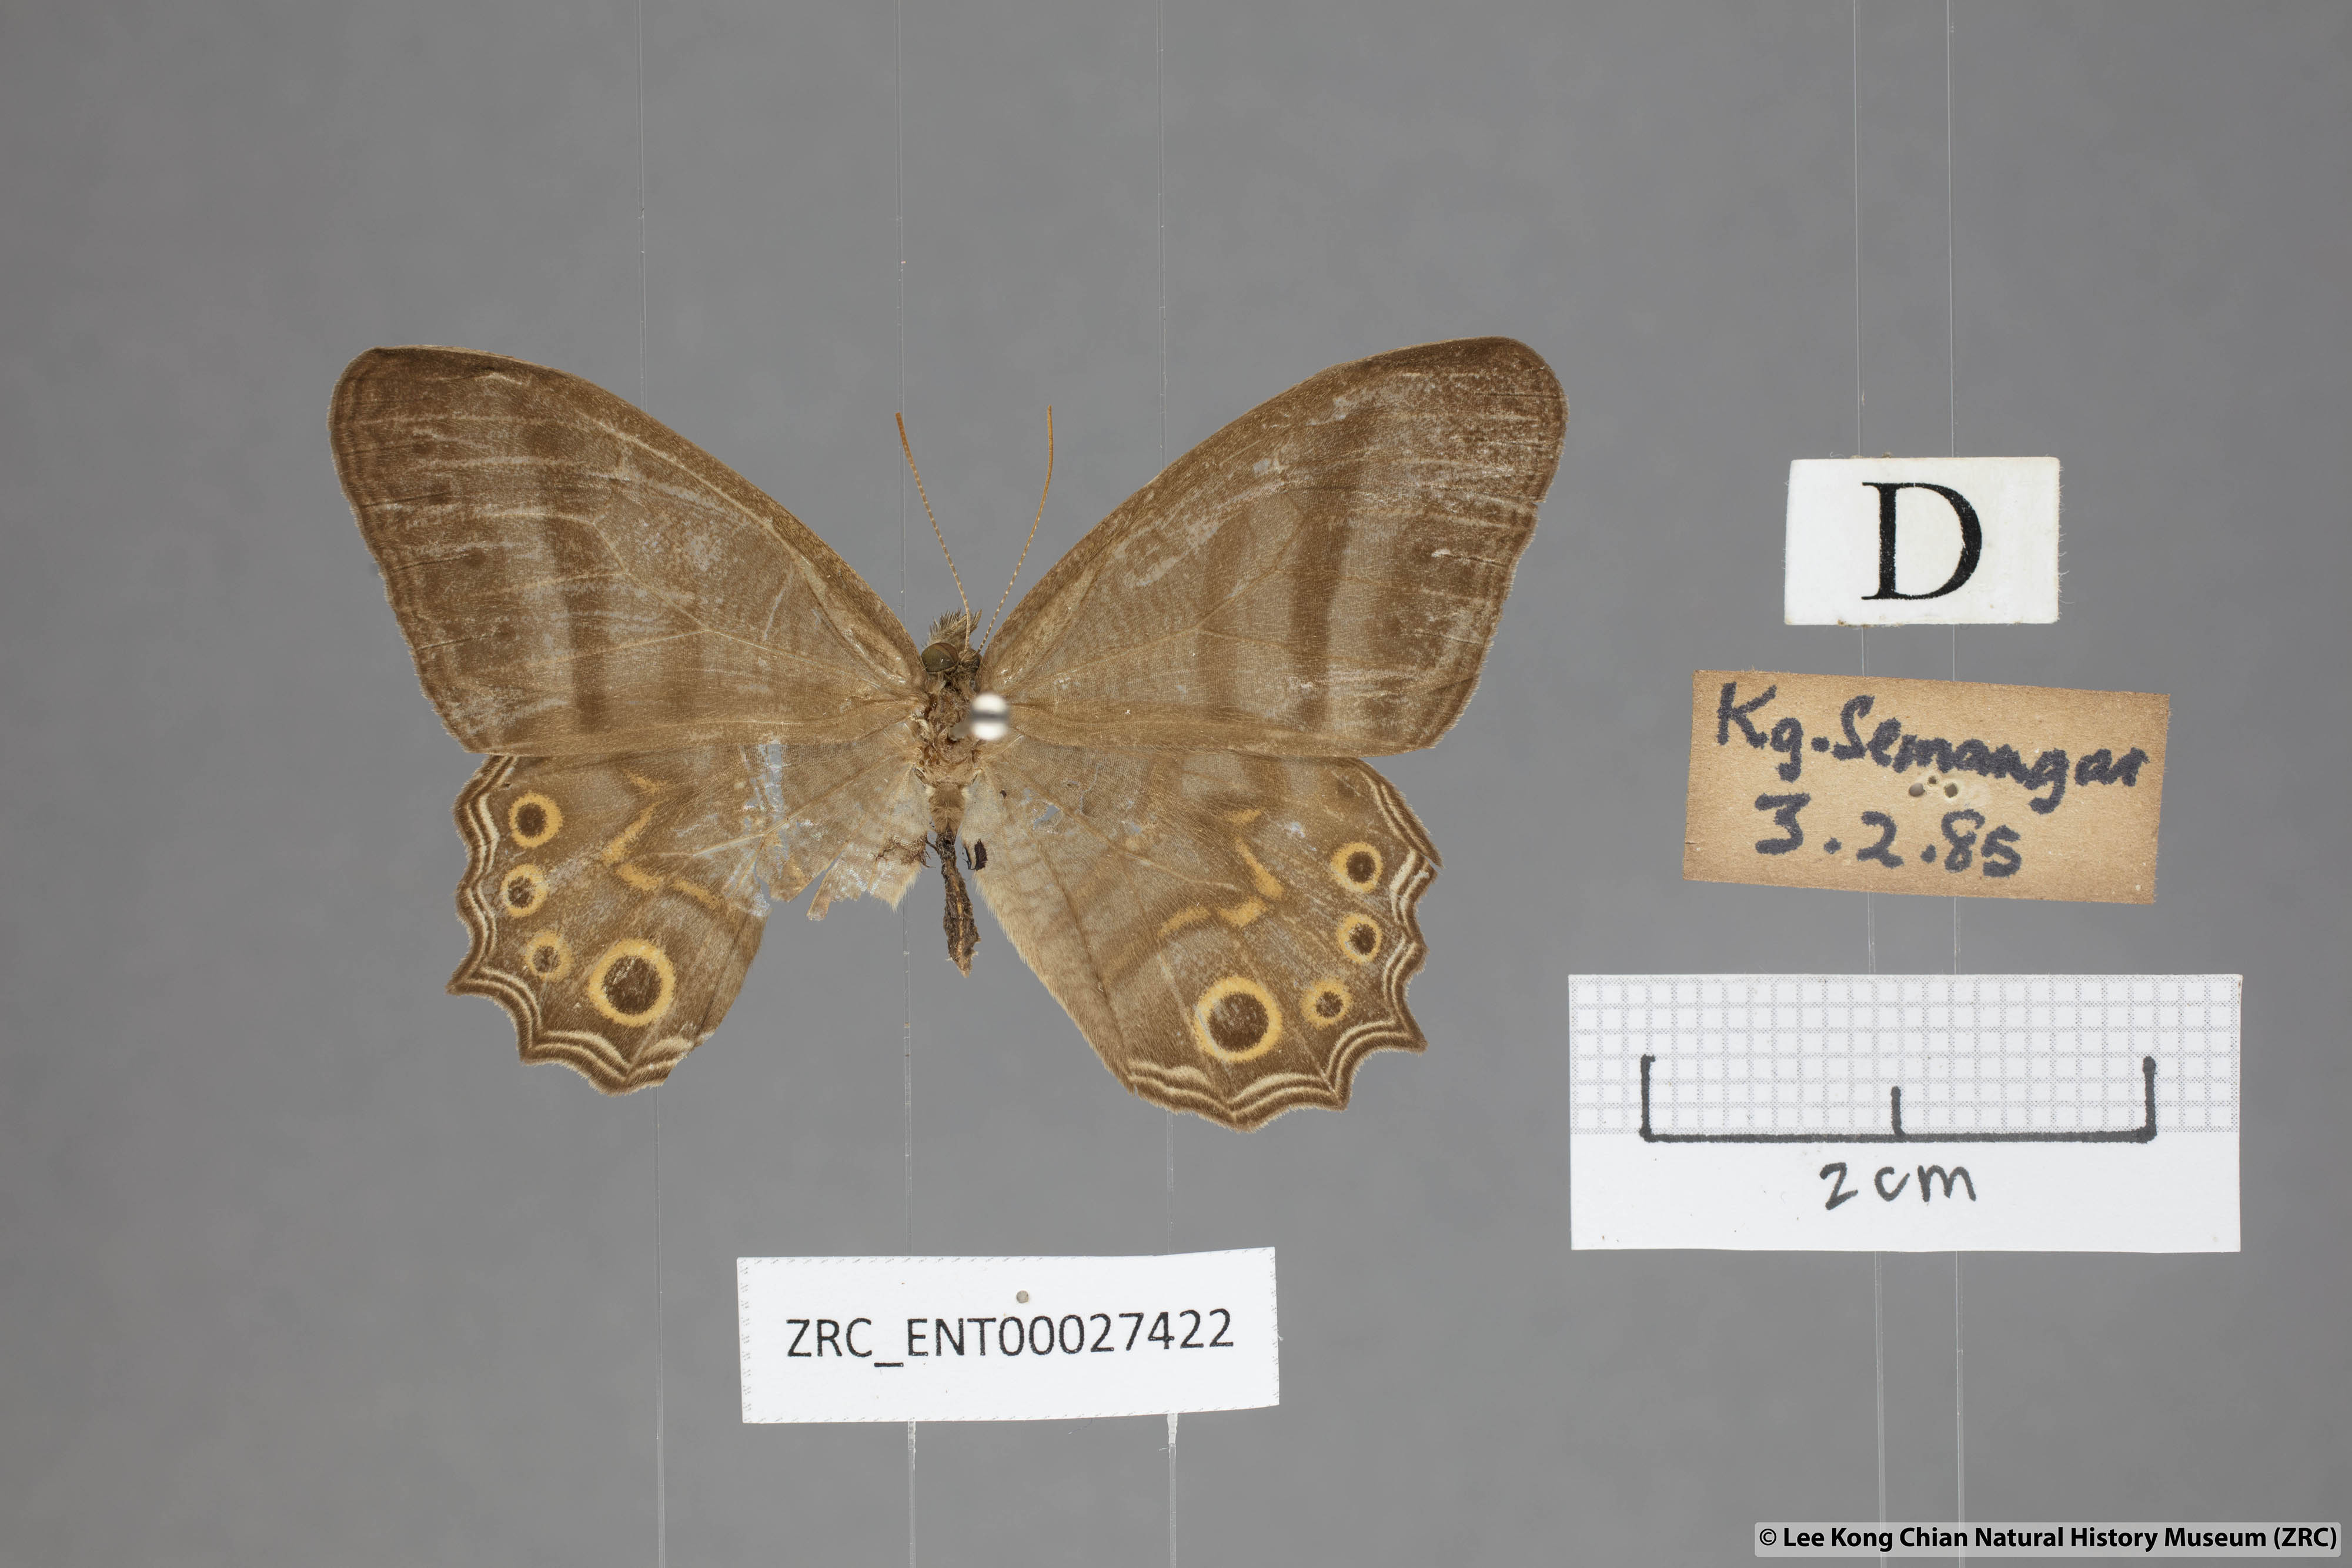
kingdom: Animalia
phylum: Arthropoda
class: Insecta
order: Lepidoptera
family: Nymphalidae
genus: Erites
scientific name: Erites elegans
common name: Elegent cyclops
